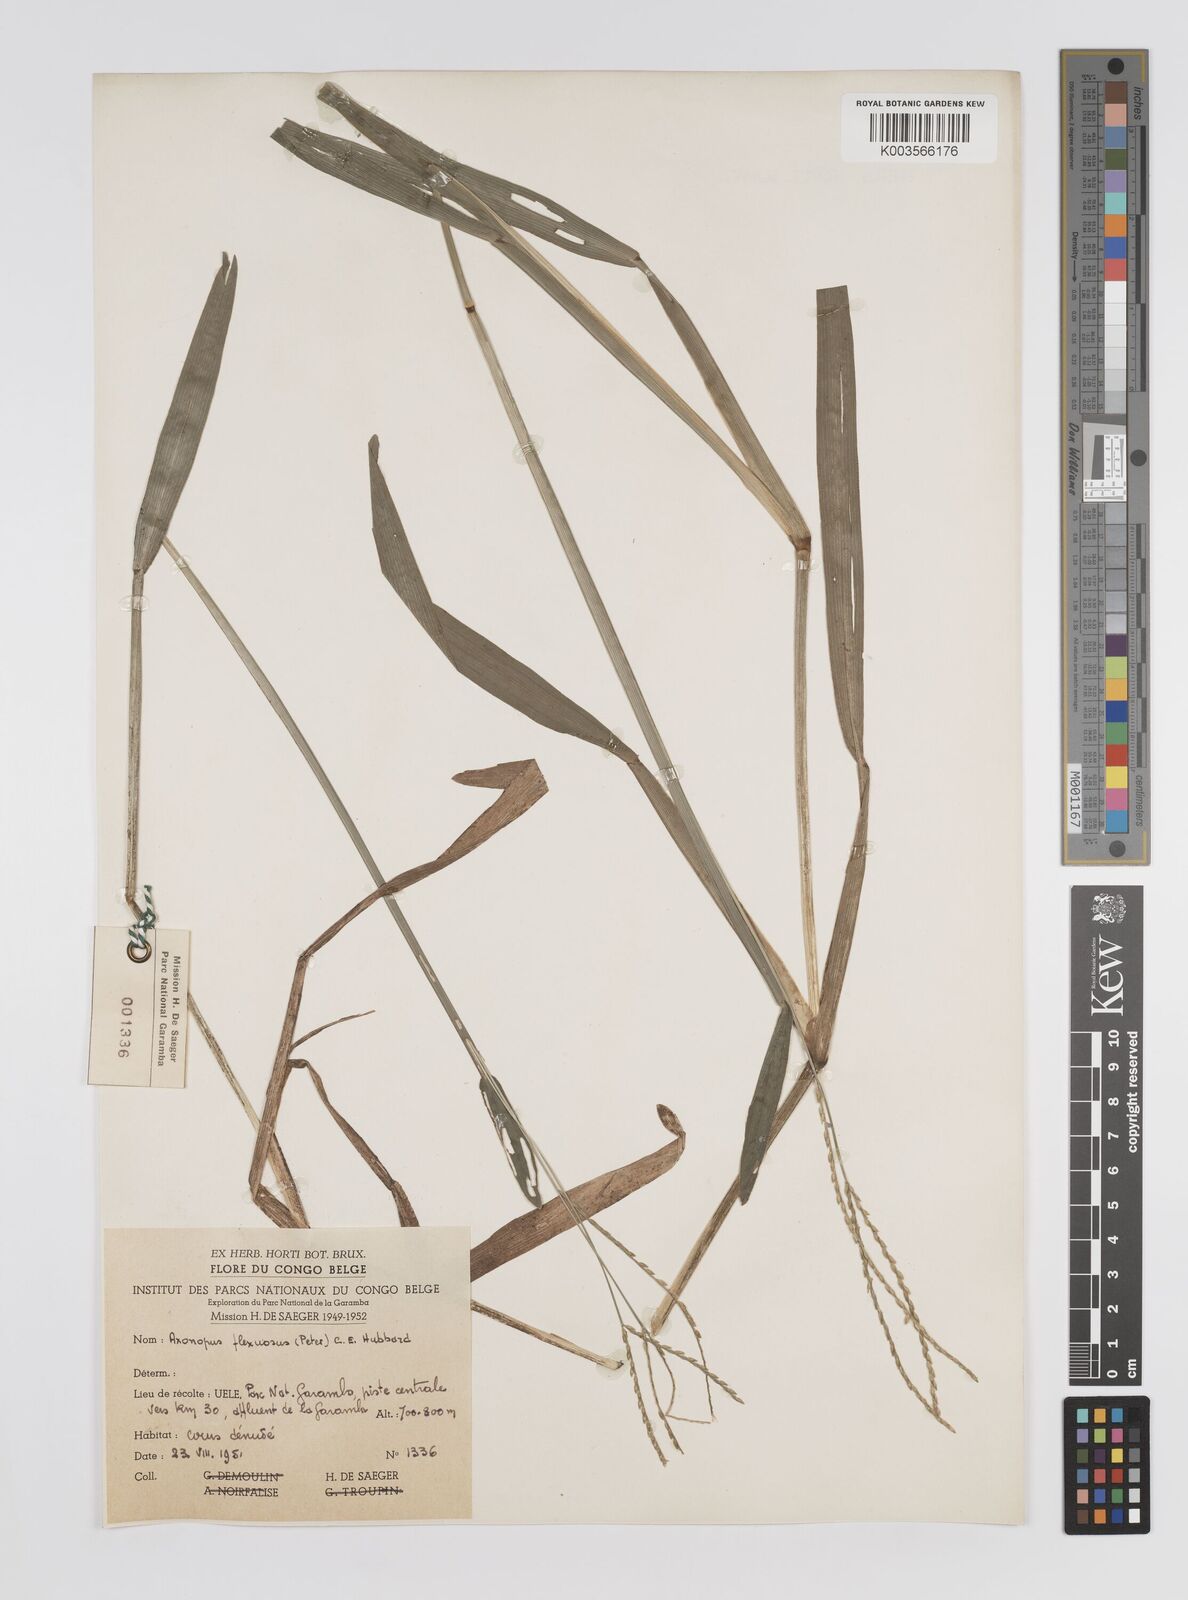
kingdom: Plantae
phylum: Tracheophyta
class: Liliopsida
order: Poales
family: Poaceae
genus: Axonopus
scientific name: Axonopus flexuosus
